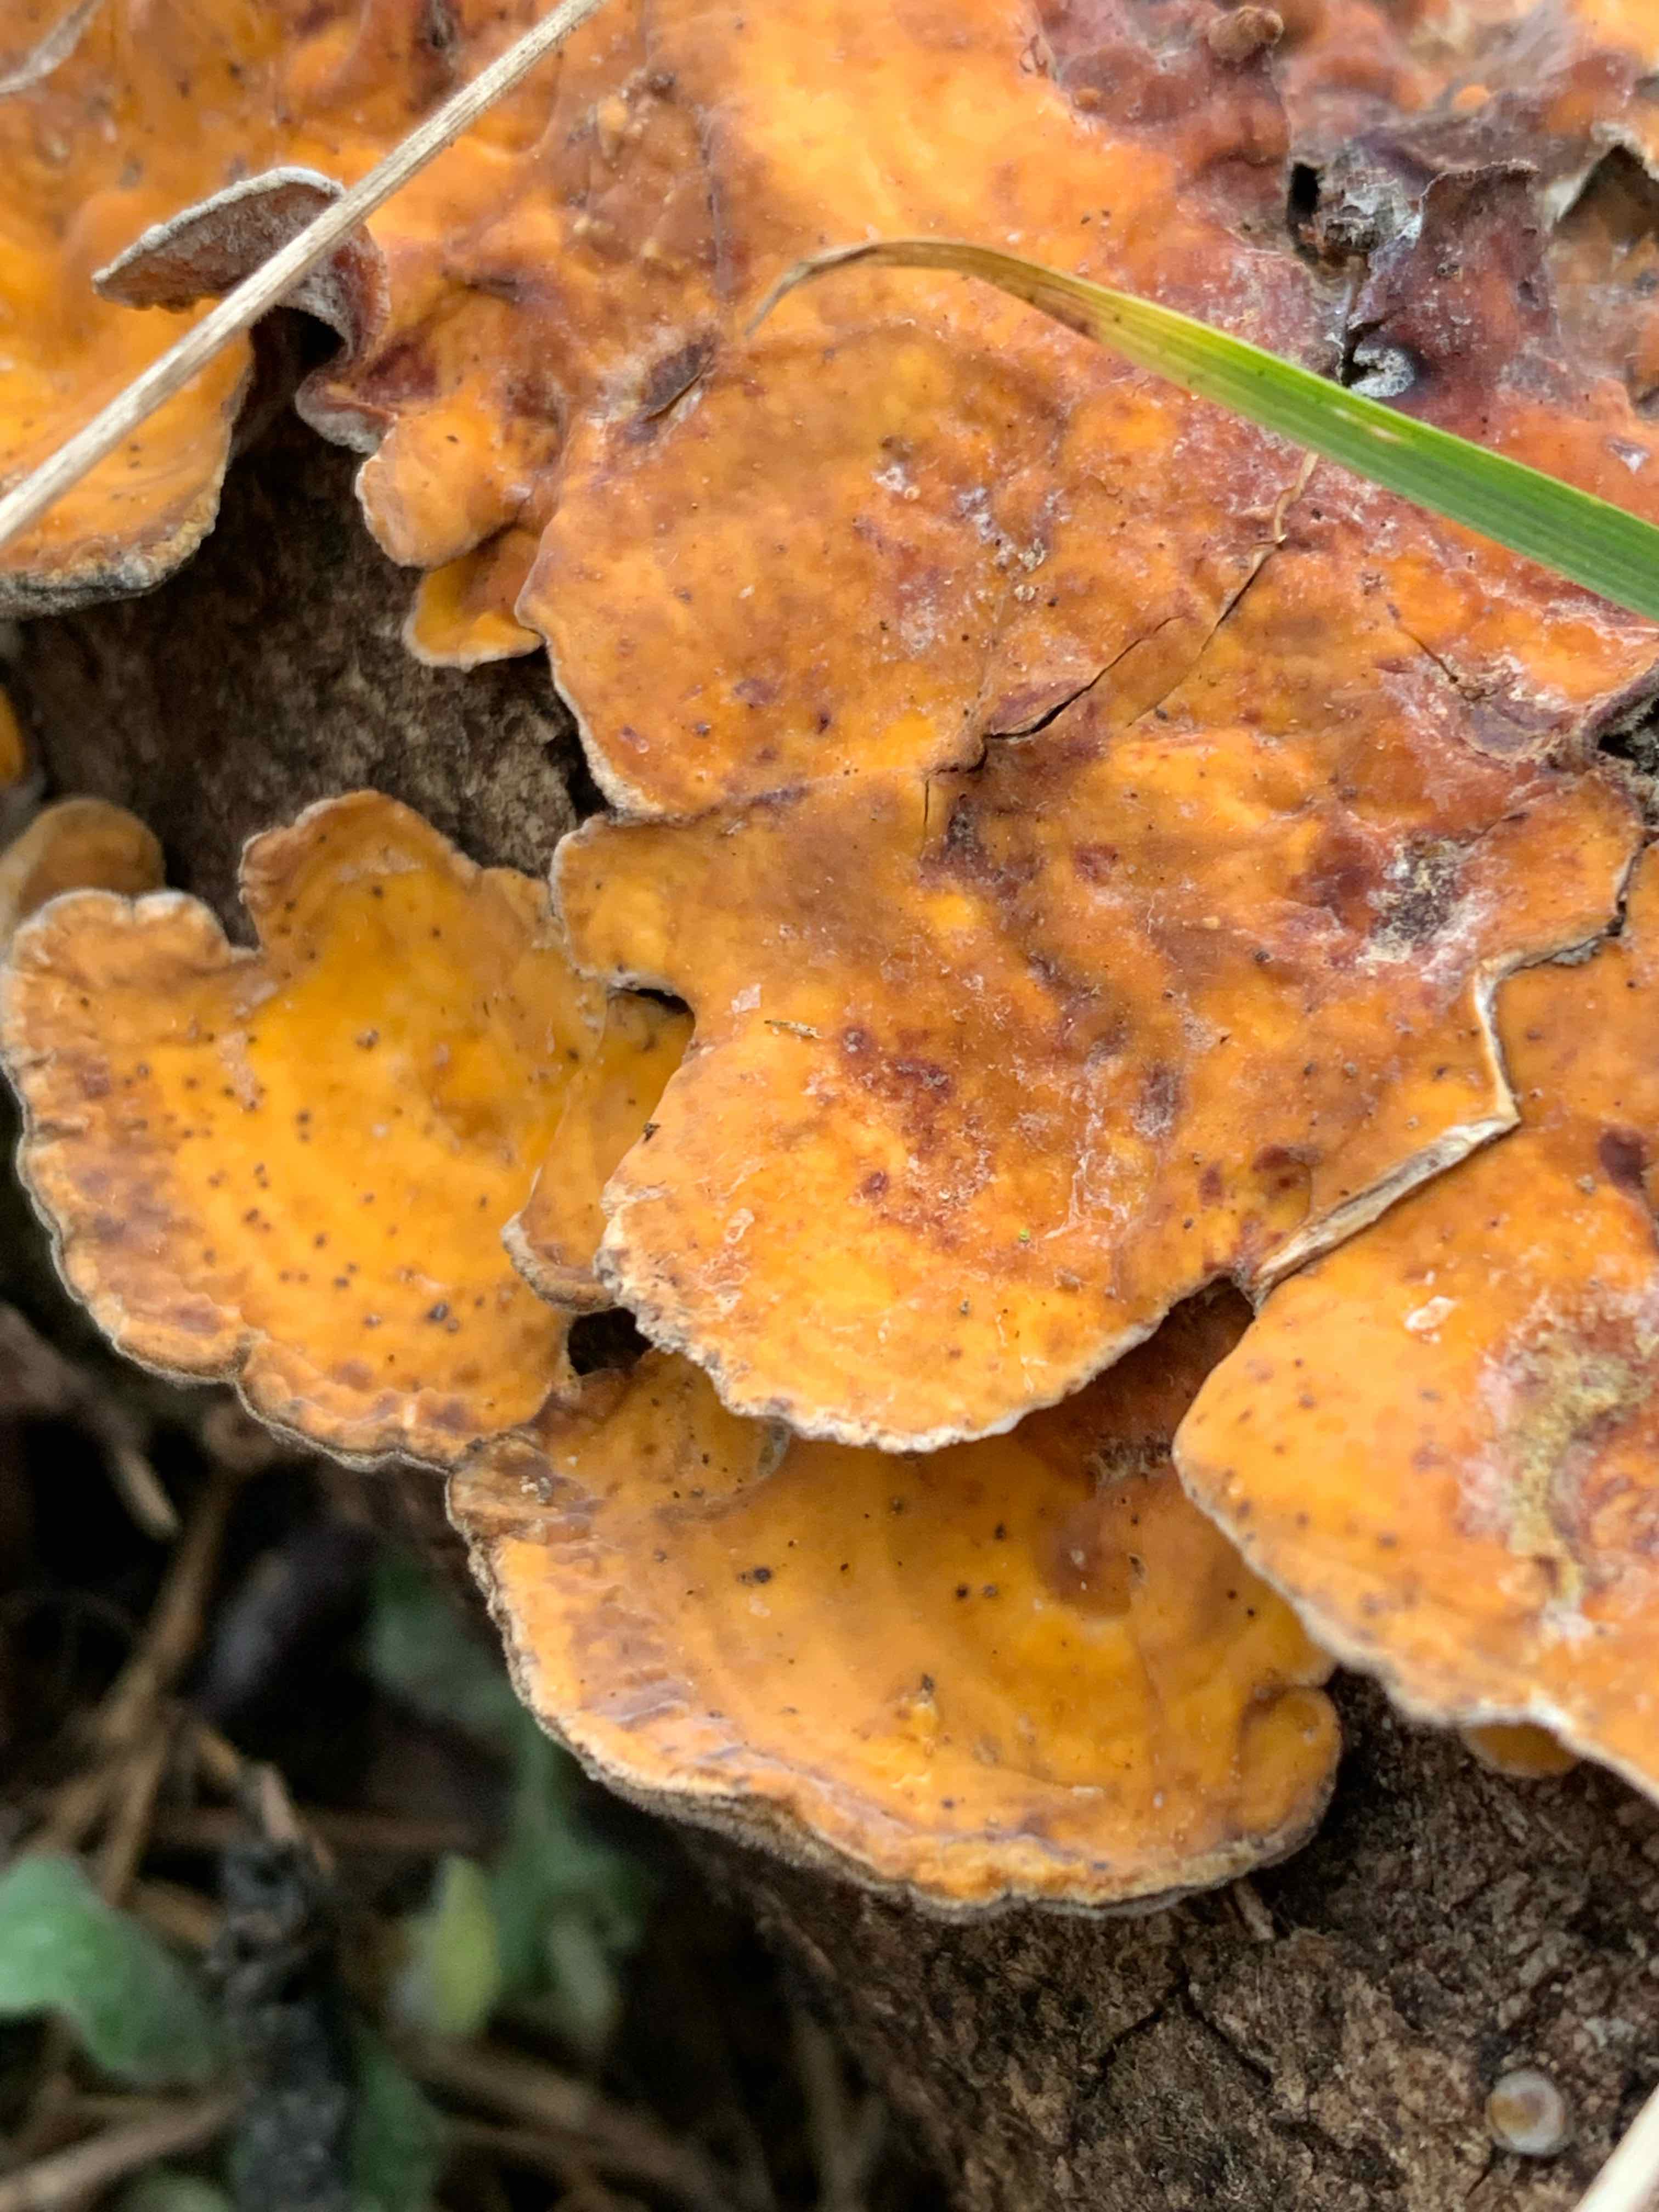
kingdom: Fungi
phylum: Basidiomycota
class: Agaricomycetes
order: Russulales
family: Stereaceae
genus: Stereum
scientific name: Stereum hirsutum
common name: håret lædersvamp
